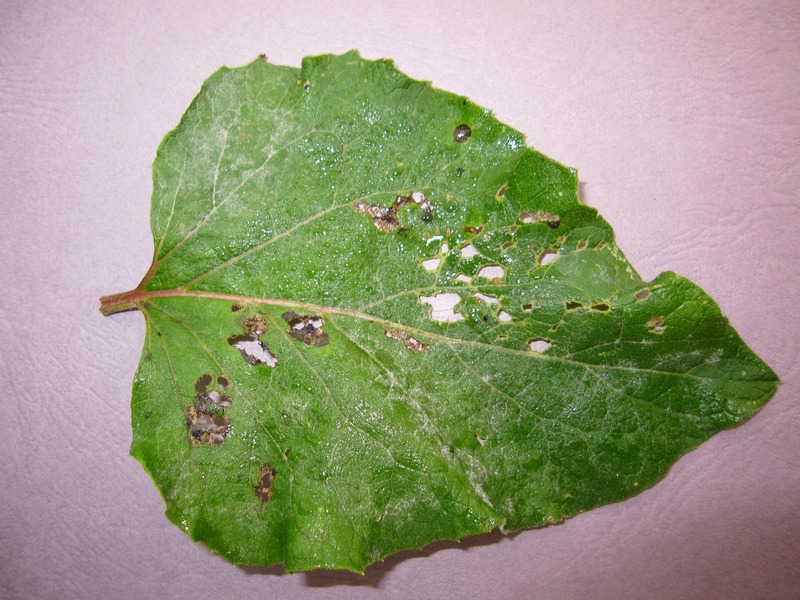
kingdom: Fungi
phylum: Ascomycota
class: Leotiomycetes
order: Helotiales
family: Erysiphaceae
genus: Golovinomyces
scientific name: Golovinomyces depressus
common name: Burdock mildew
